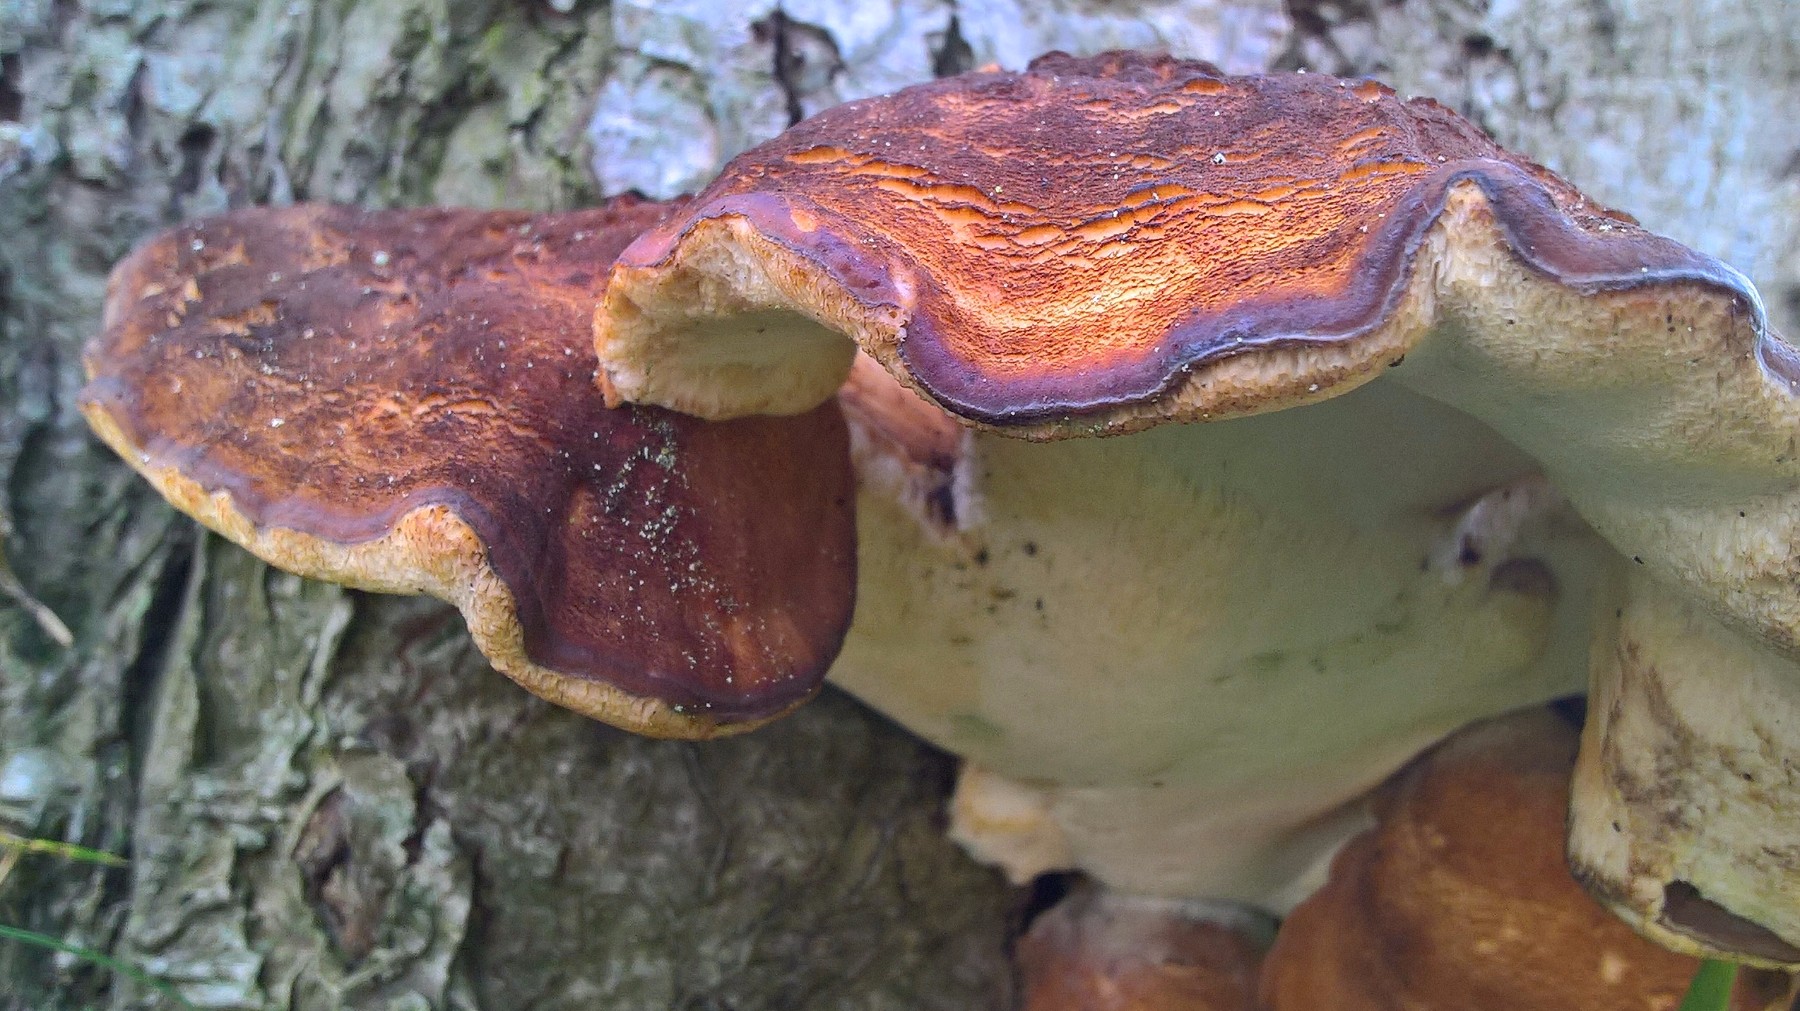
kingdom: Fungi
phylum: Basidiomycota
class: Agaricomycetes
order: Polyporales
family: Meripilaceae
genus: Meripilus
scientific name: Meripilus giganteus
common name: kæmpeporesvamp
